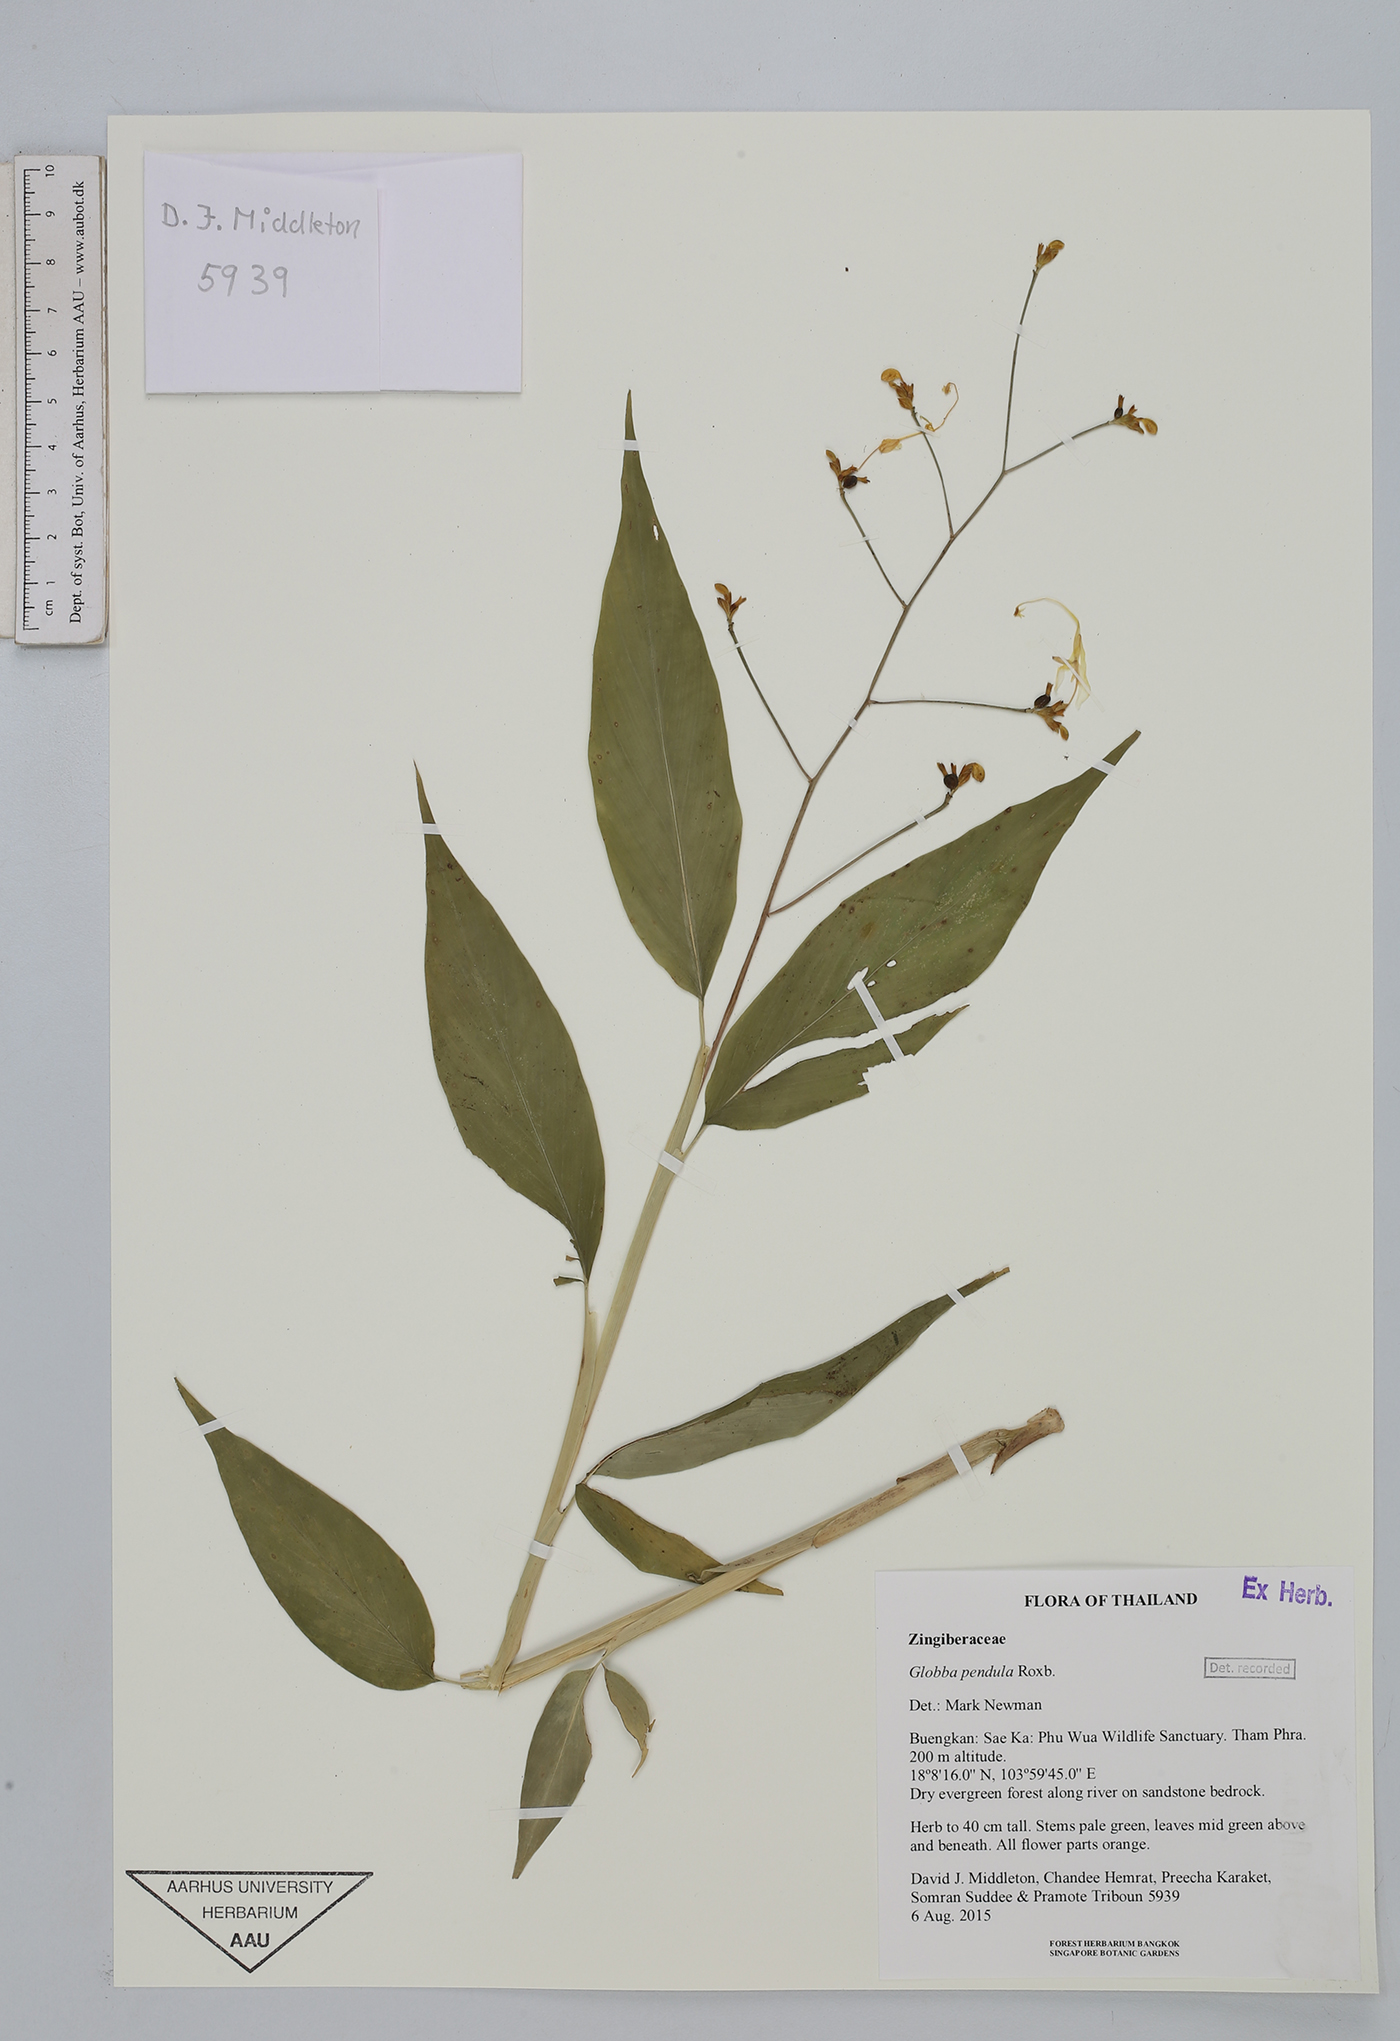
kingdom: Plantae
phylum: Tracheophyta
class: Liliopsida
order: Zingiberales
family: Zingiberaceae
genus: Globba
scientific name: Globba pendula
